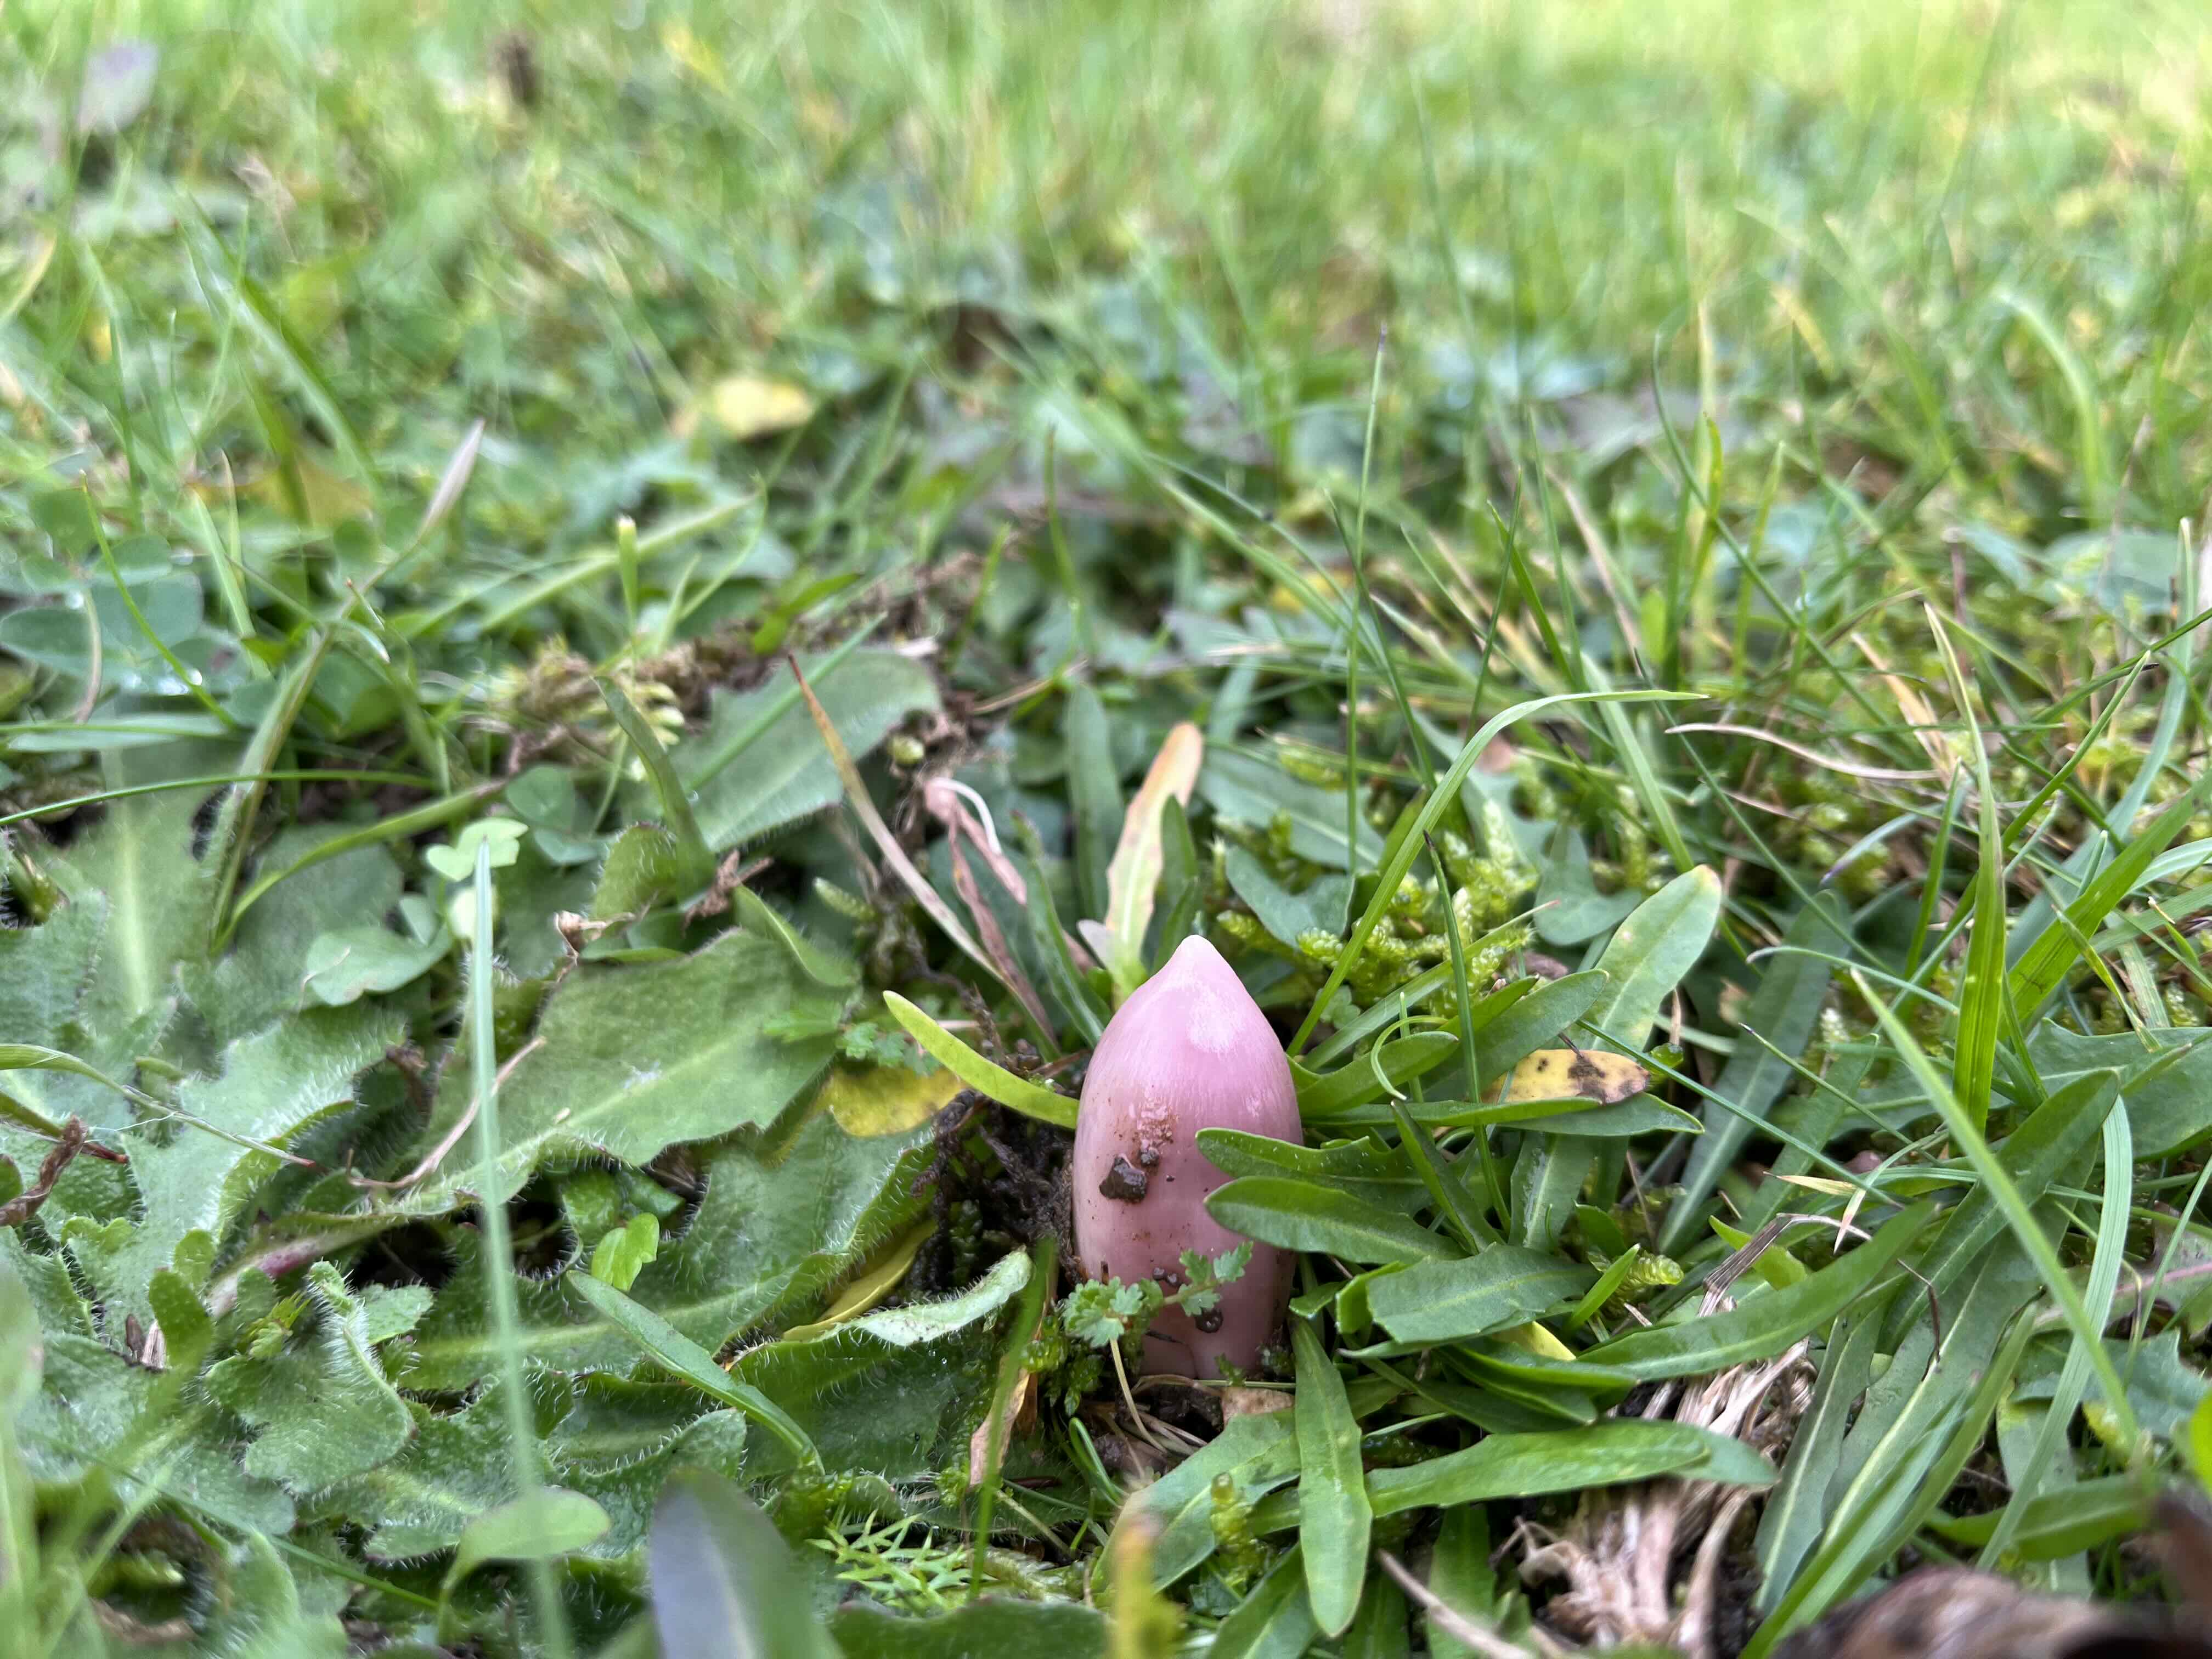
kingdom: Fungi
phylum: Basidiomycota
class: Agaricomycetes
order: Agaricales
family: Hygrophoraceae
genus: Porpolomopsis
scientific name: Porpolomopsis calyptriformis
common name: rosenrød vokshat
